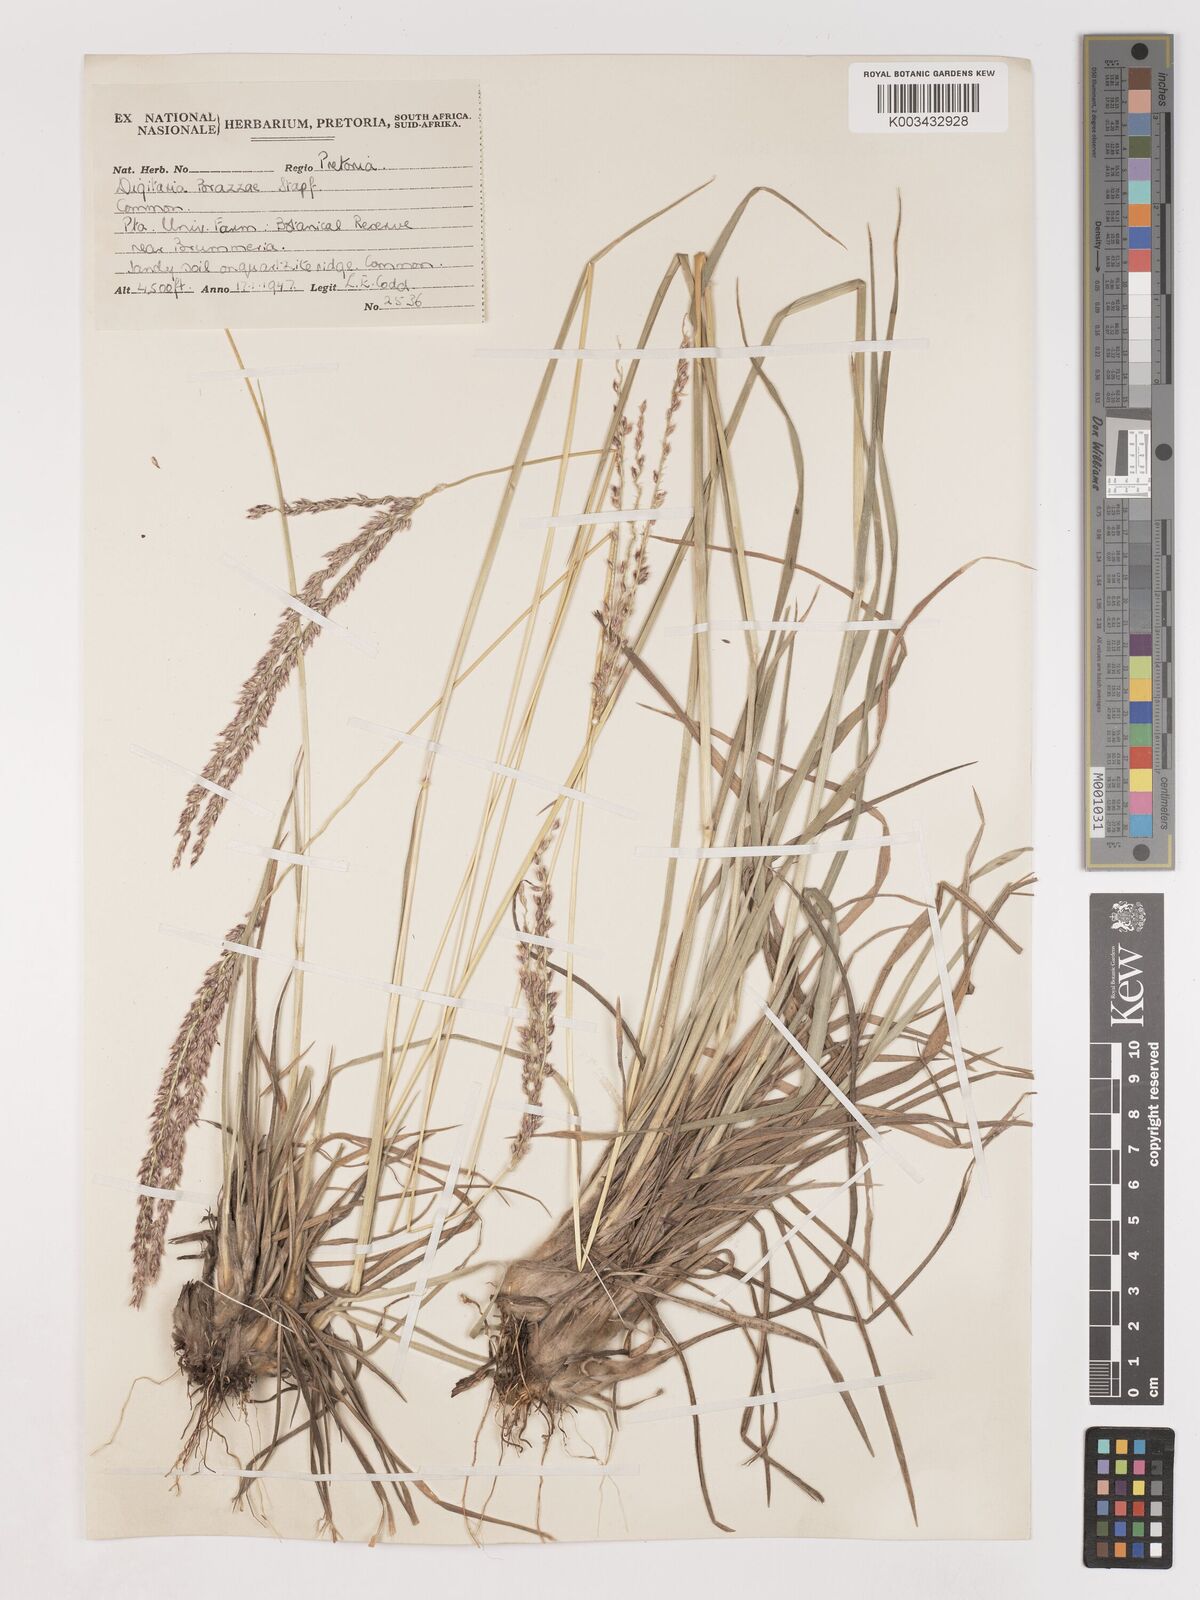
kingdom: Plantae
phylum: Tracheophyta
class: Liliopsida
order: Poales
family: Poaceae
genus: Digitaria
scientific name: Digitaria brazzae
